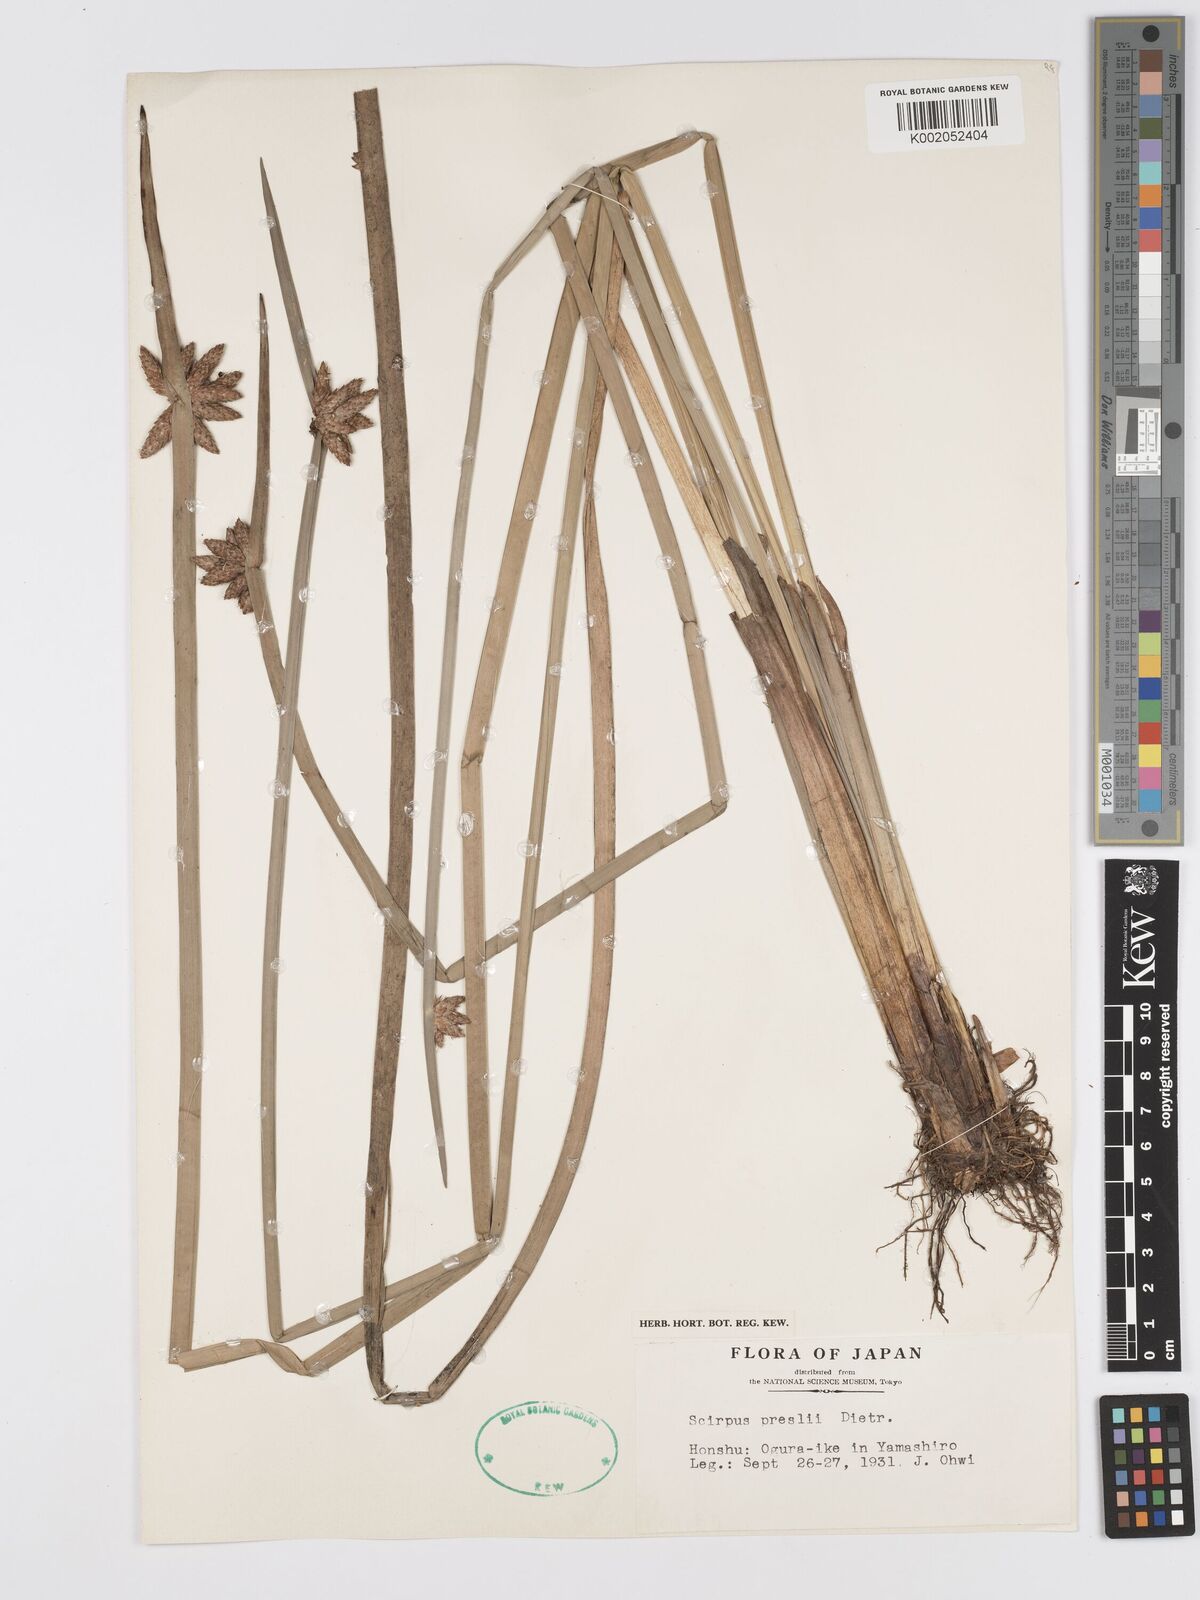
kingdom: Plantae
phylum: Tracheophyta
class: Liliopsida
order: Poales
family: Cyperaceae
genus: Schoenoplectiella
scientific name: Schoenoplectiella mucronata
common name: Bog bulrush
